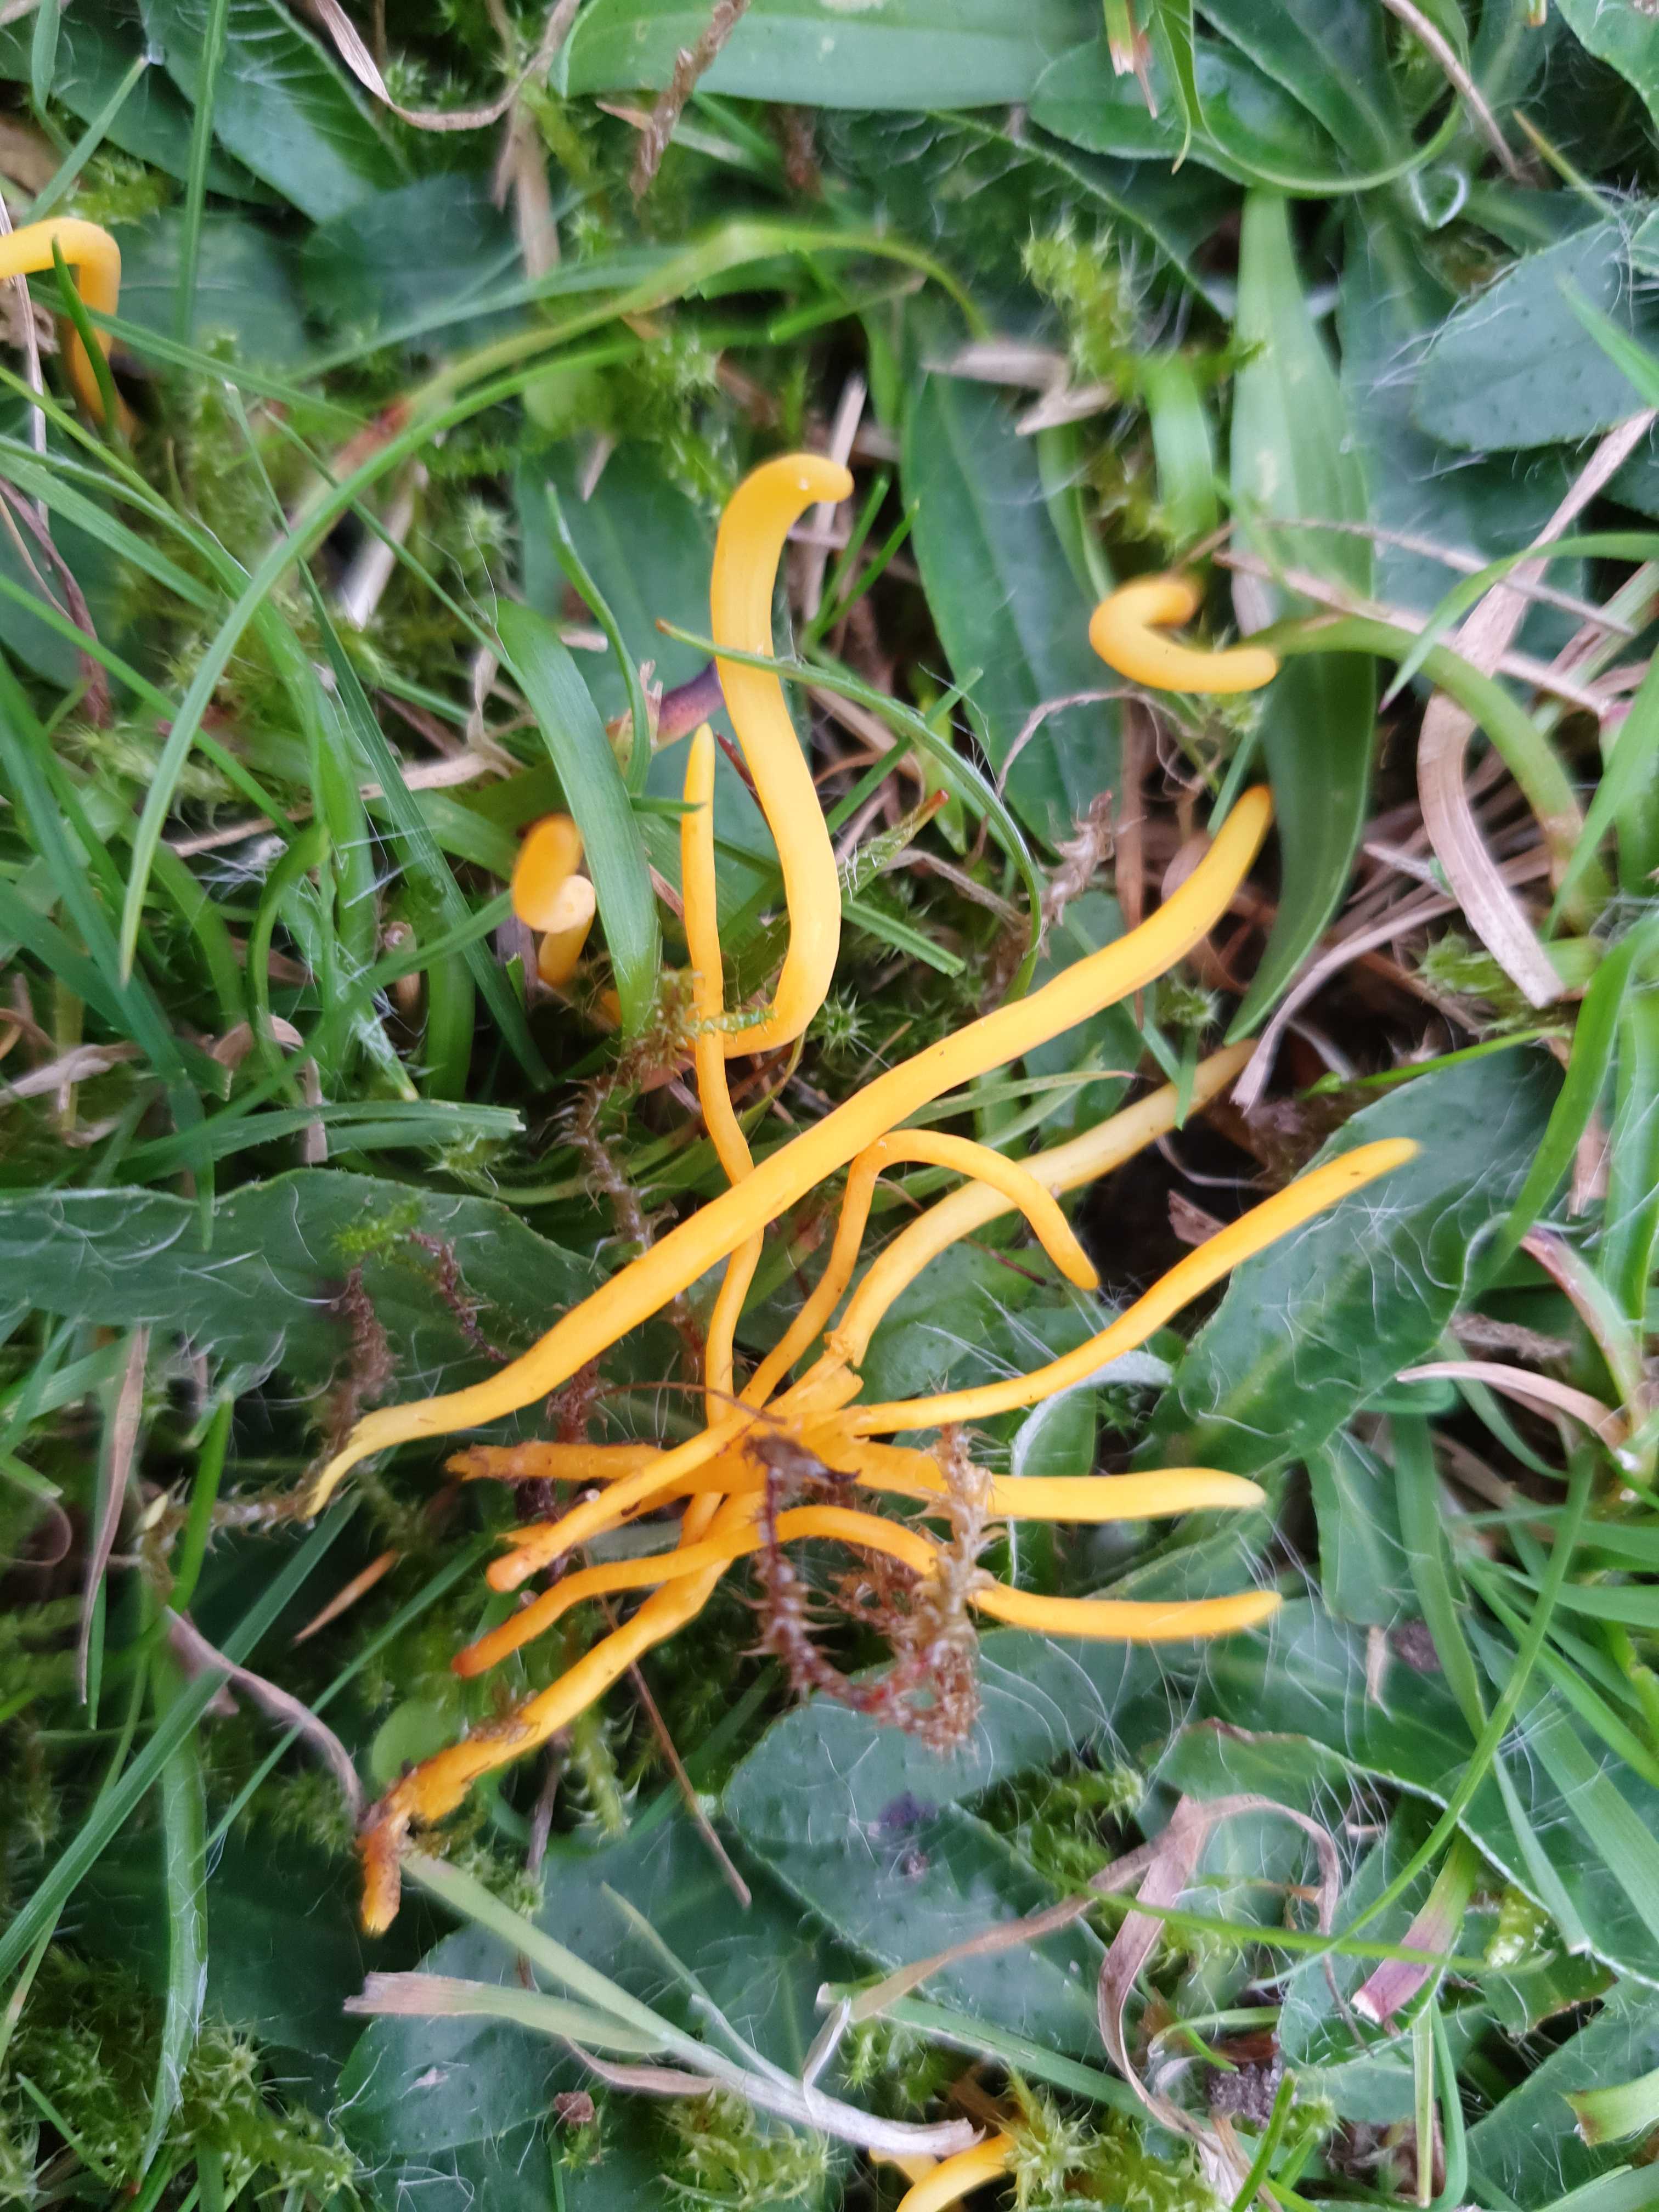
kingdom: Fungi
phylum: Basidiomycota
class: Agaricomycetes
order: Agaricales
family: Clavariaceae
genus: Clavulinopsis
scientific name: Clavulinopsis helvola
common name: orangegul køllesvamp
